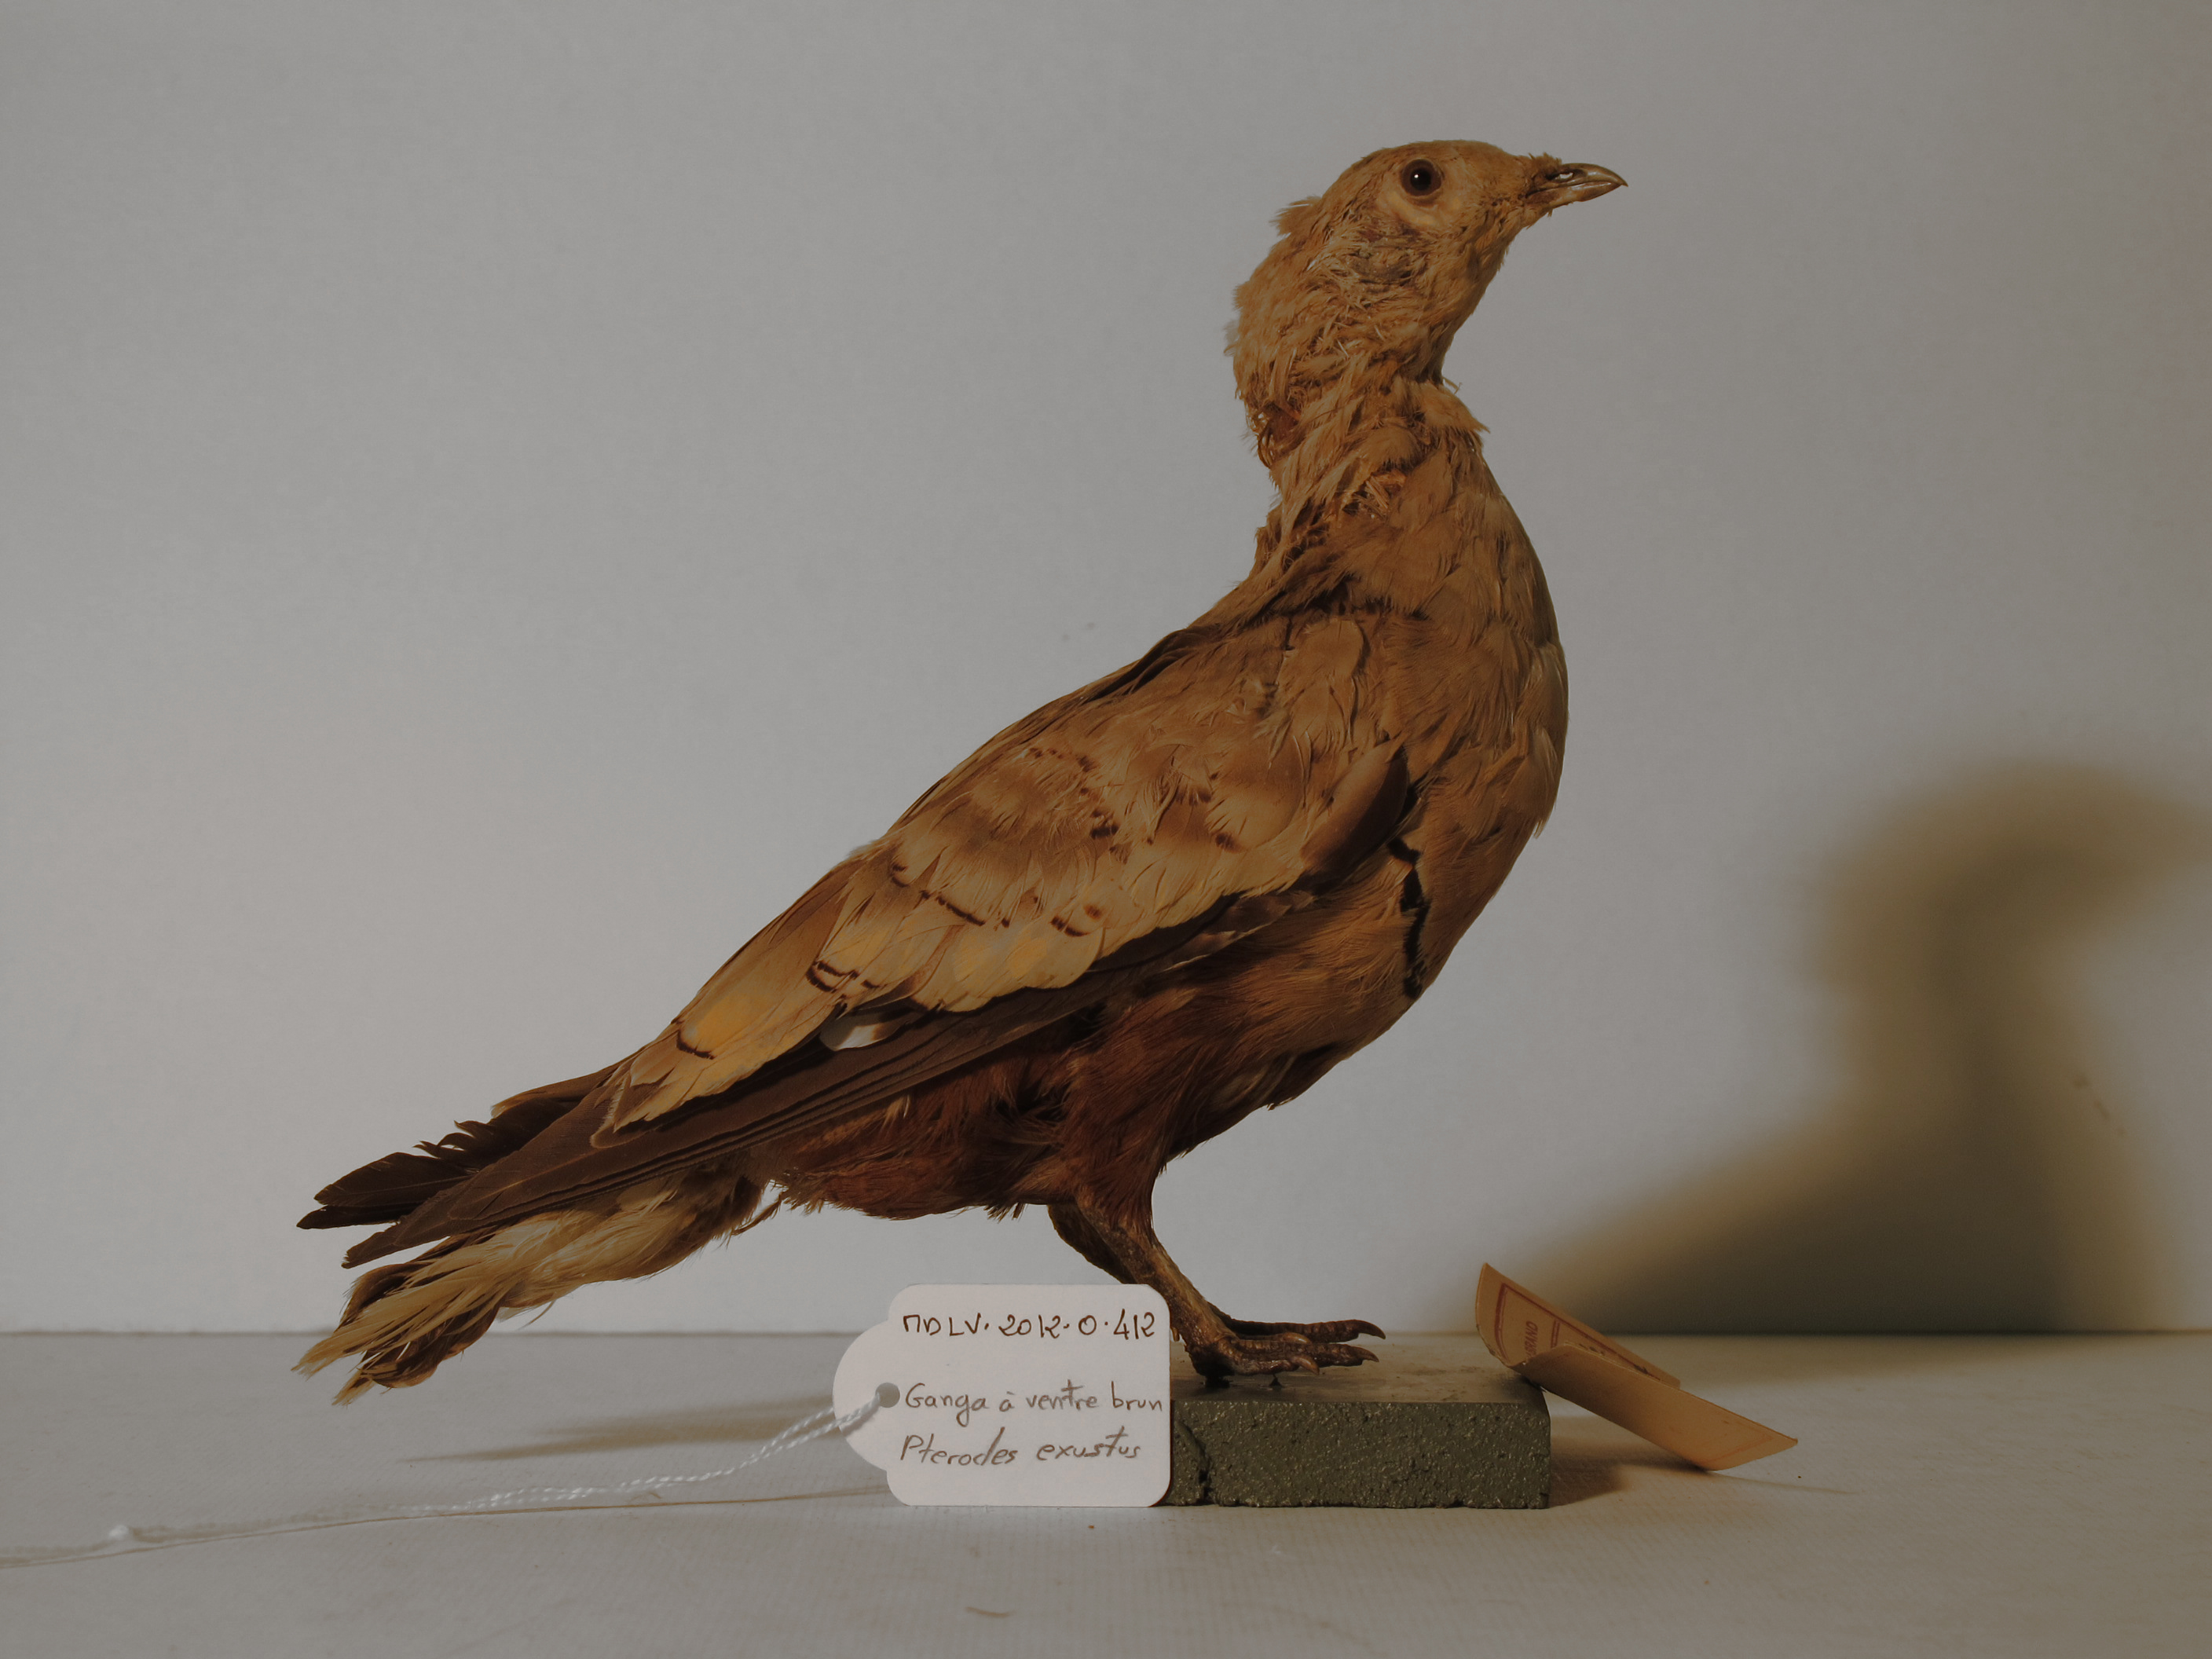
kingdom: Animalia
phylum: Chordata
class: Aves
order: Pteroclidiformes
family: Pteroclididae
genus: Pterocles
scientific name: Pterocles exustus
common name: Chestnut-bellied Sandgrouse
